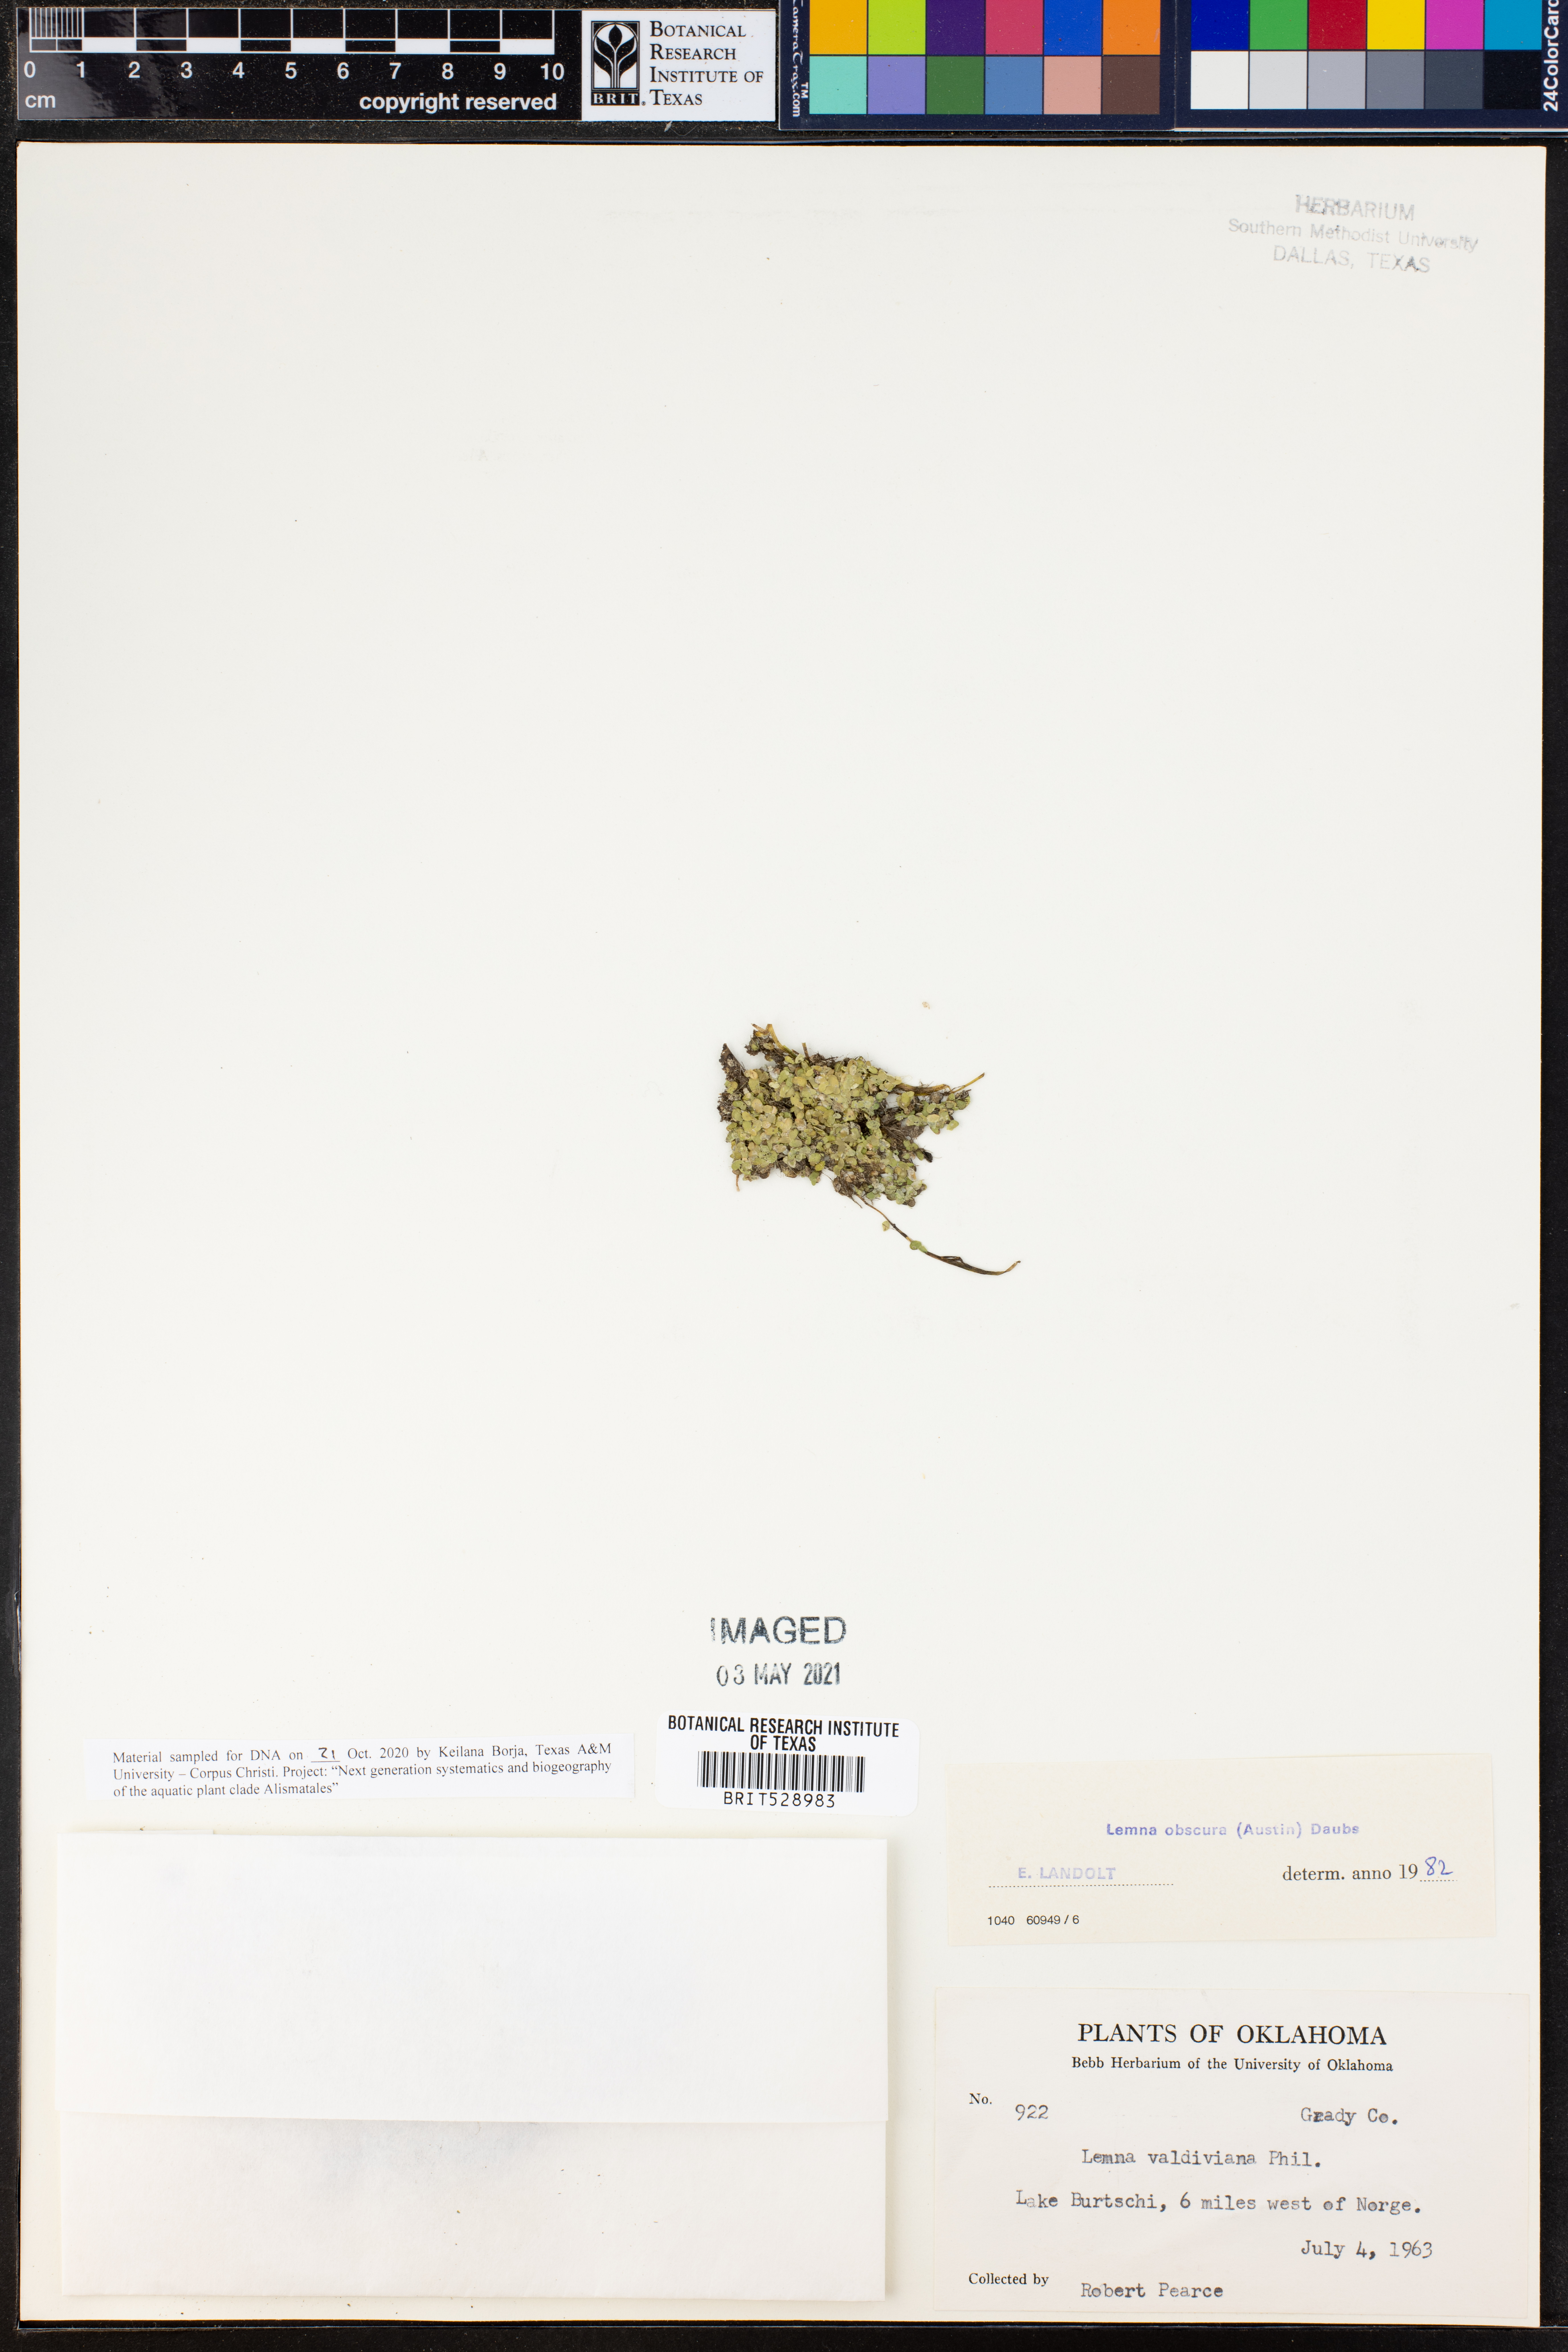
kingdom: Plantae
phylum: Tracheophyta
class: Liliopsida
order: Alismatales
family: Araceae
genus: Lemna
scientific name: Lemna obscura
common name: Little duckweed
